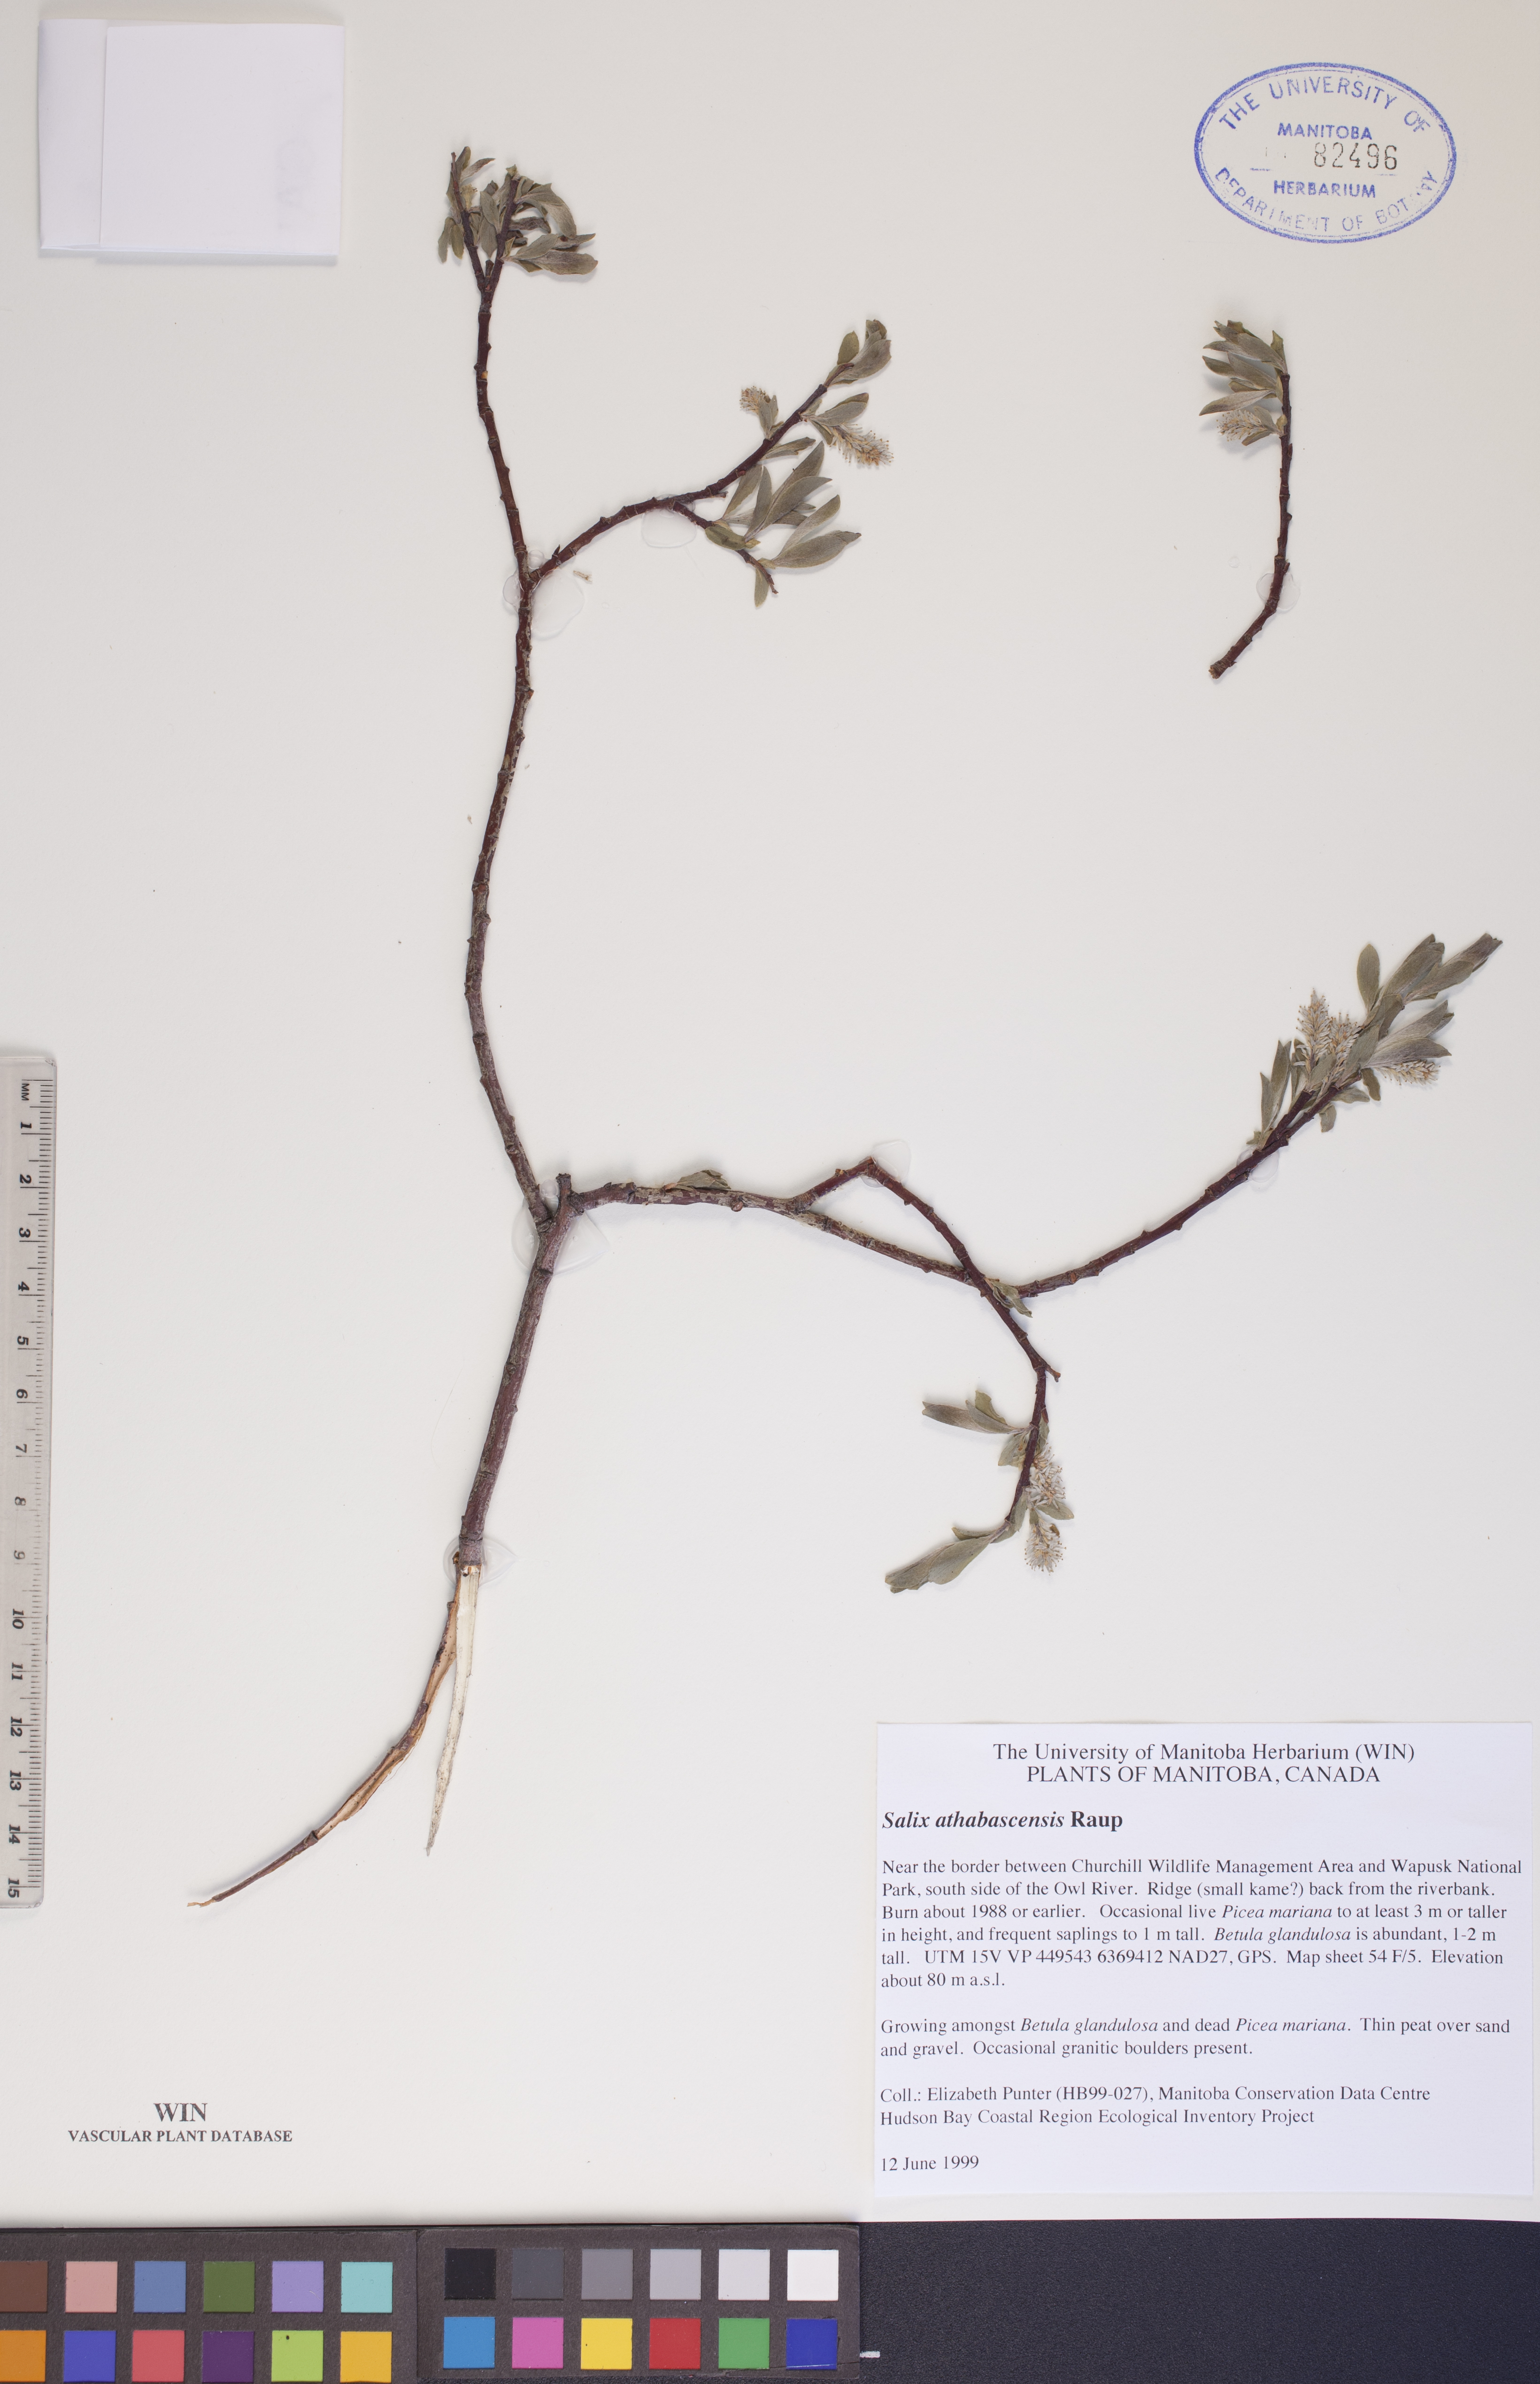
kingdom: Plantae
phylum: Tracheophyta
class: Magnoliopsida
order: Malpighiales
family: Salicaceae
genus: Salix
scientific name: Salix athabascensis
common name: Athabasca willow
